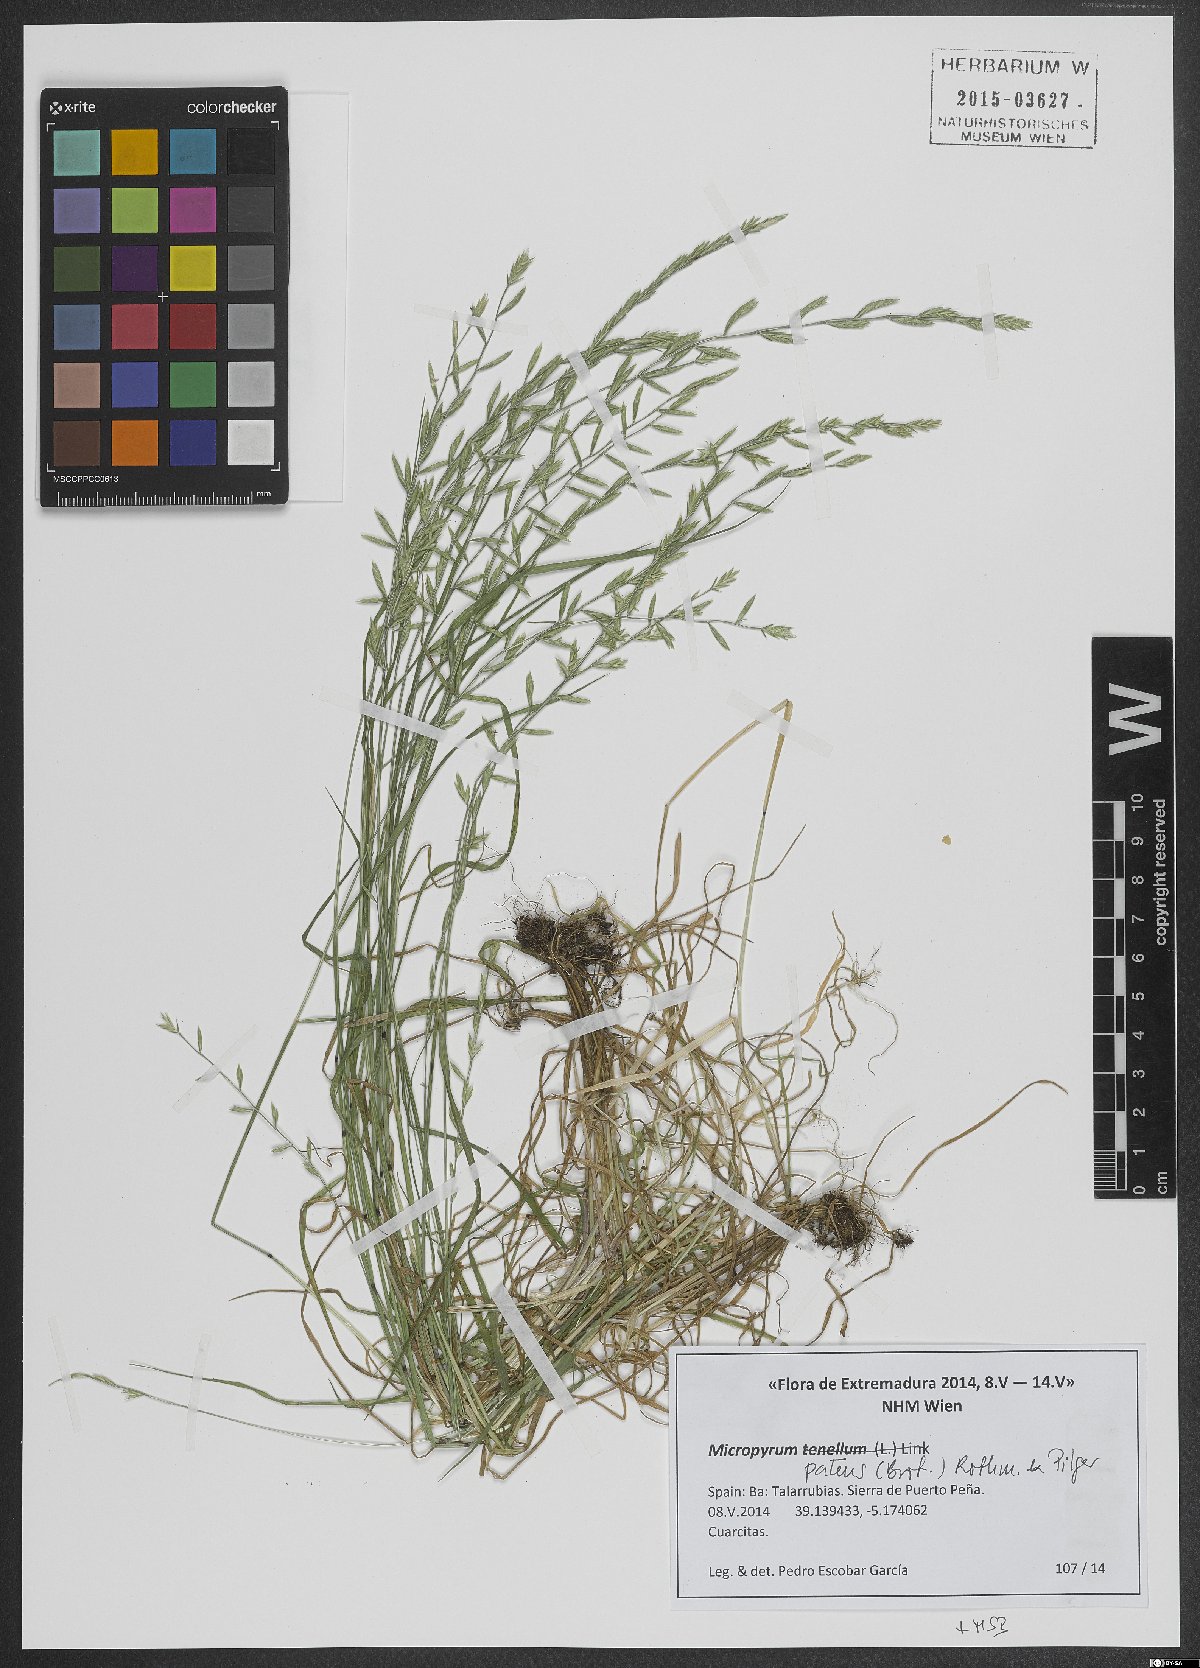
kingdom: Plantae
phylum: Tracheophyta
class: Liliopsida
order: Poales
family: Poaceae
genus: Festuca
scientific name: Festuca Micropyrum patens
